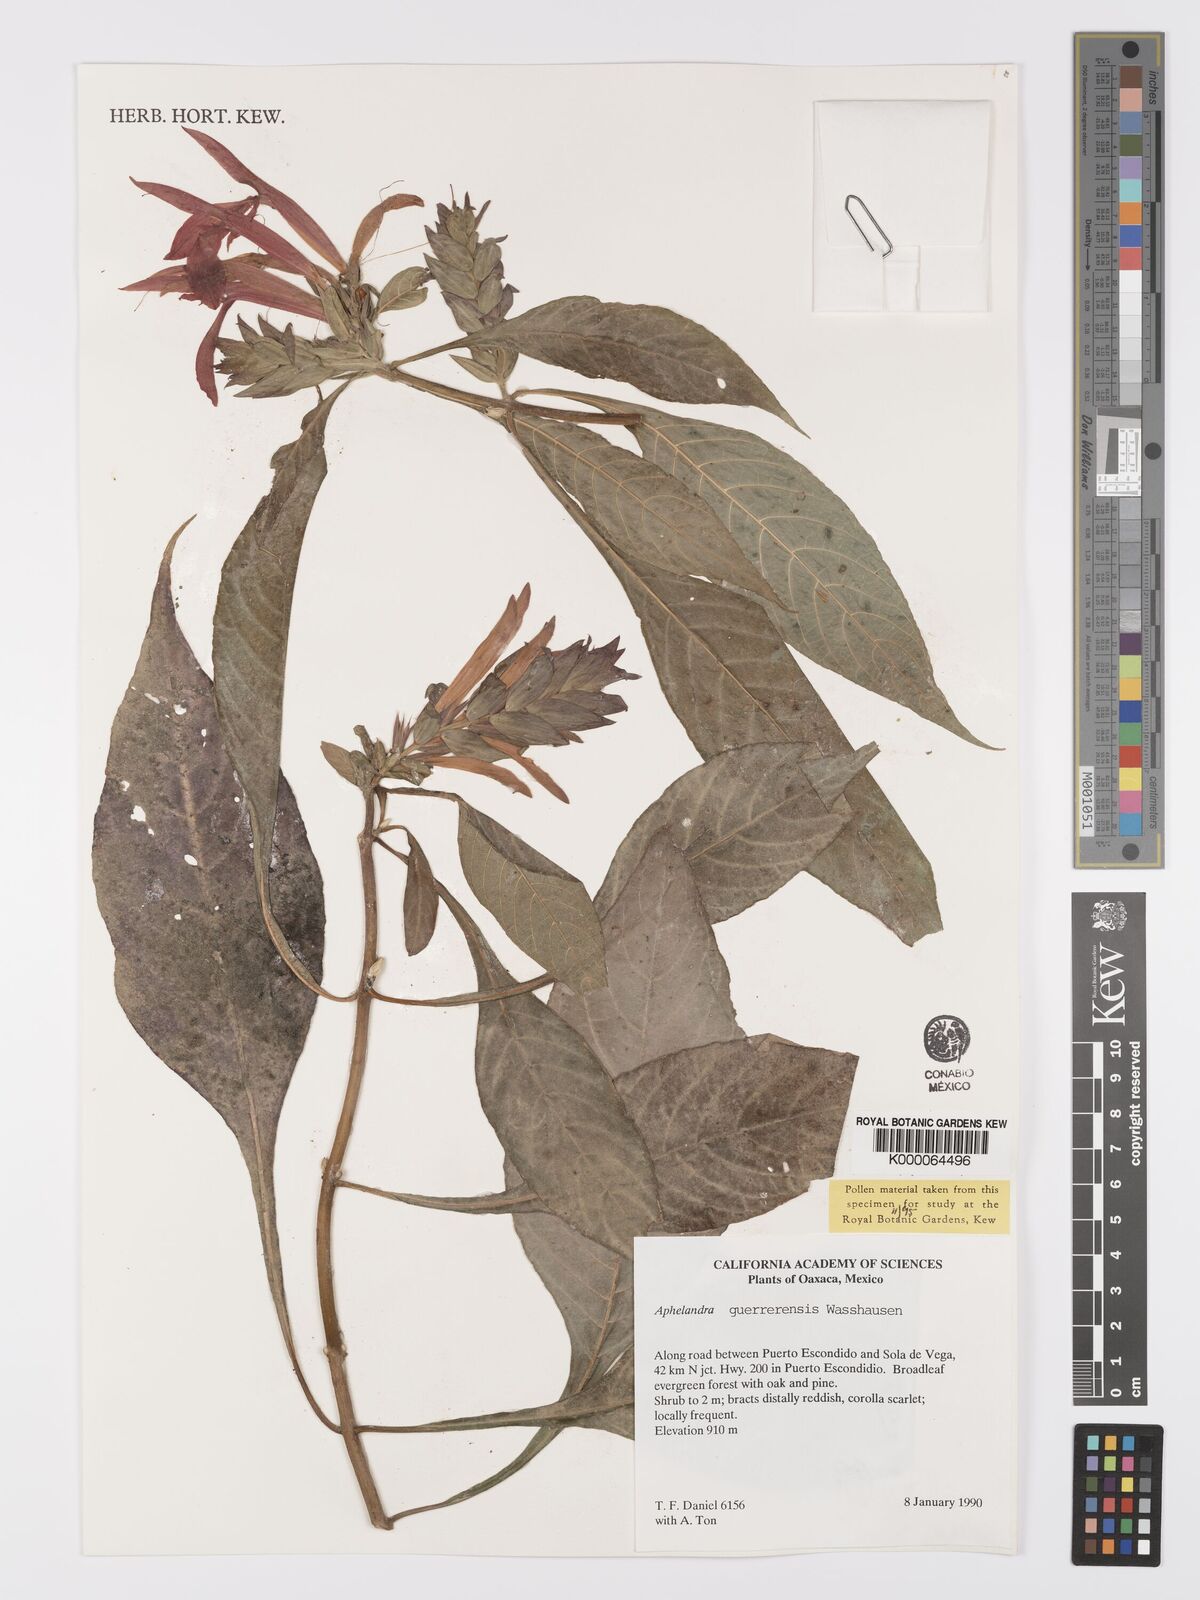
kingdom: Plantae
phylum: Tracheophyta
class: Magnoliopsida
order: Lamiales
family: Acanthaceae
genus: Aphelandra
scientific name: Aphelandra guerrerensis
